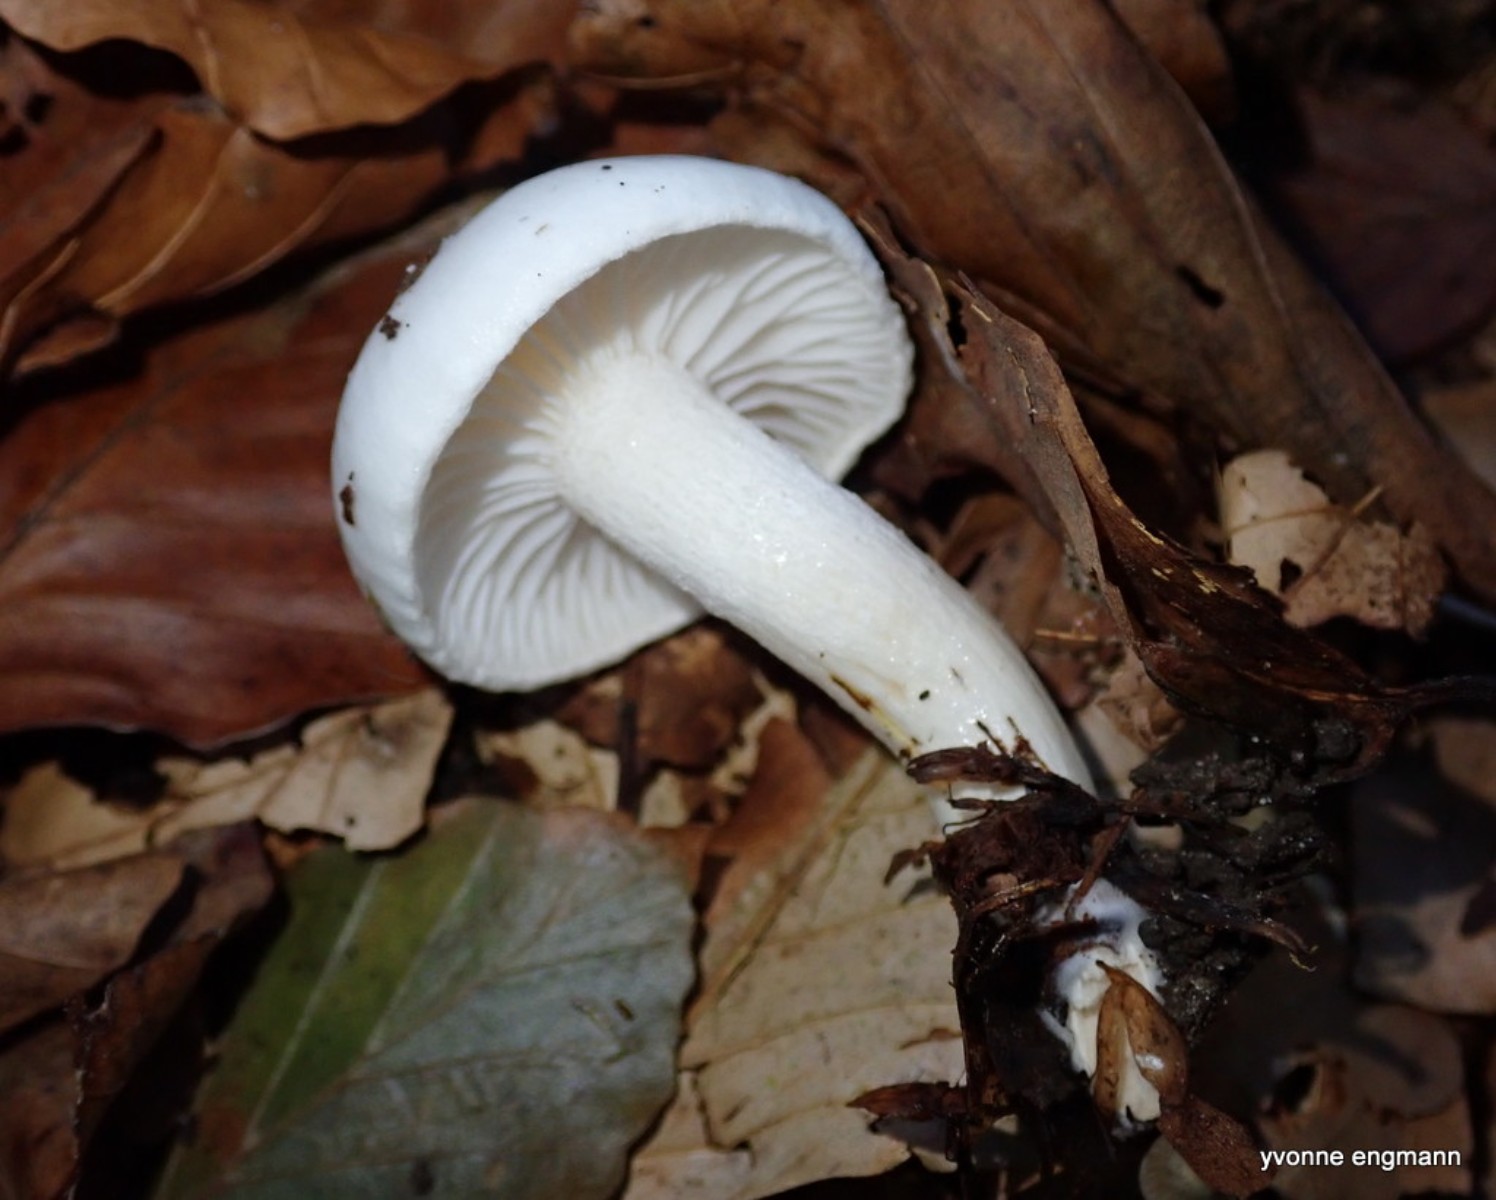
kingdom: Fungi
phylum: Basidiomycota
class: Agaricomycetes
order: Agaricales
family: Hygrophoraceae
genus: Hygrophorus
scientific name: Hygrophorus eburneus
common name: elfenbens-sneglehat
